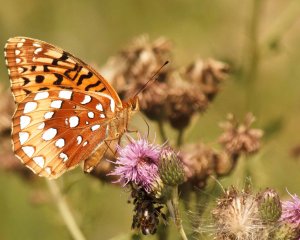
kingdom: Animalia
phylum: Arthropoda
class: Insecta
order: Lepidoptera
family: Nymphalidae
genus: Speyeria
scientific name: Speyeria cybele
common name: Great Spangled Fritillary
